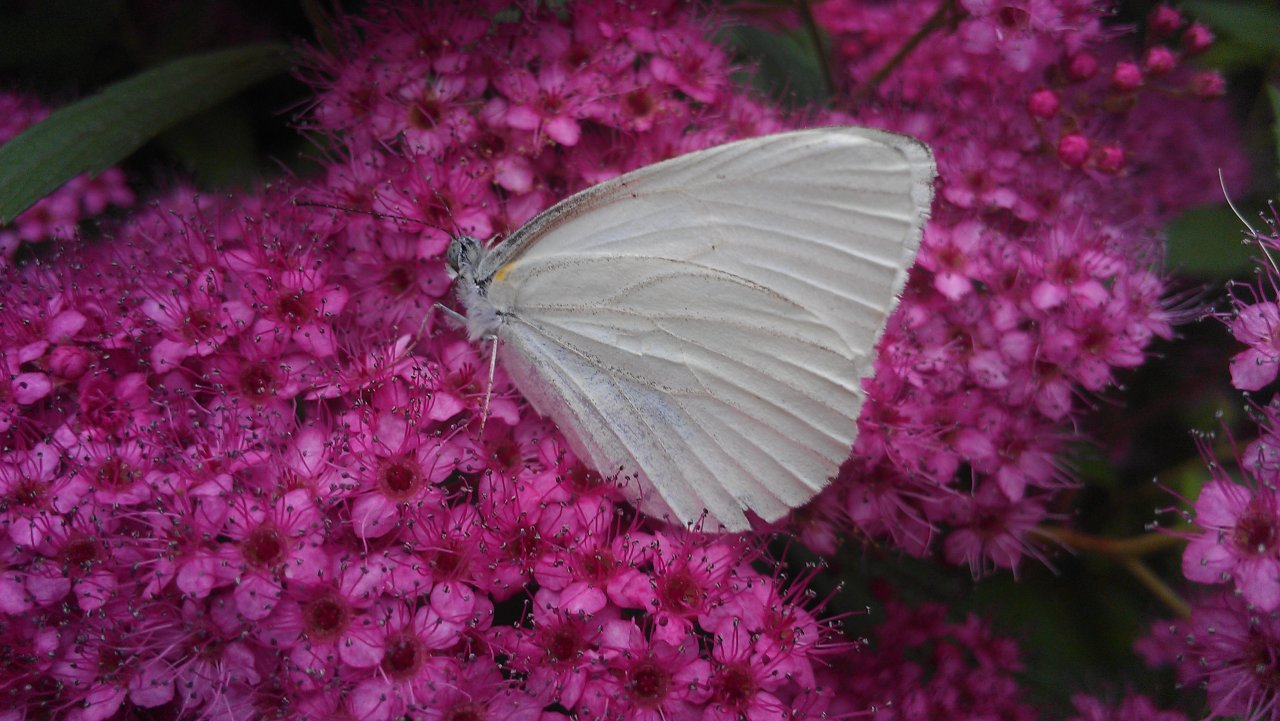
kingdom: Animalia
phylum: Arthropoda
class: Insecta
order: Lepidoptera
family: Pieridae
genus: Pieris
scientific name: Pieris oleracea
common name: Mustard White
